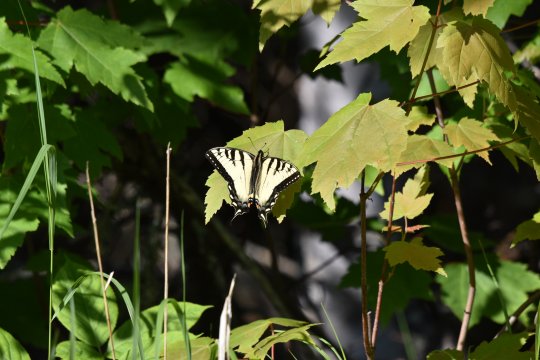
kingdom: Animalia
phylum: Arthropoda
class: Insecta
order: Lepidoptera
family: Papilionidae
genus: Pterourus
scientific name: Pterourus canadensis
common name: Canadian Tiger Swallowtail
